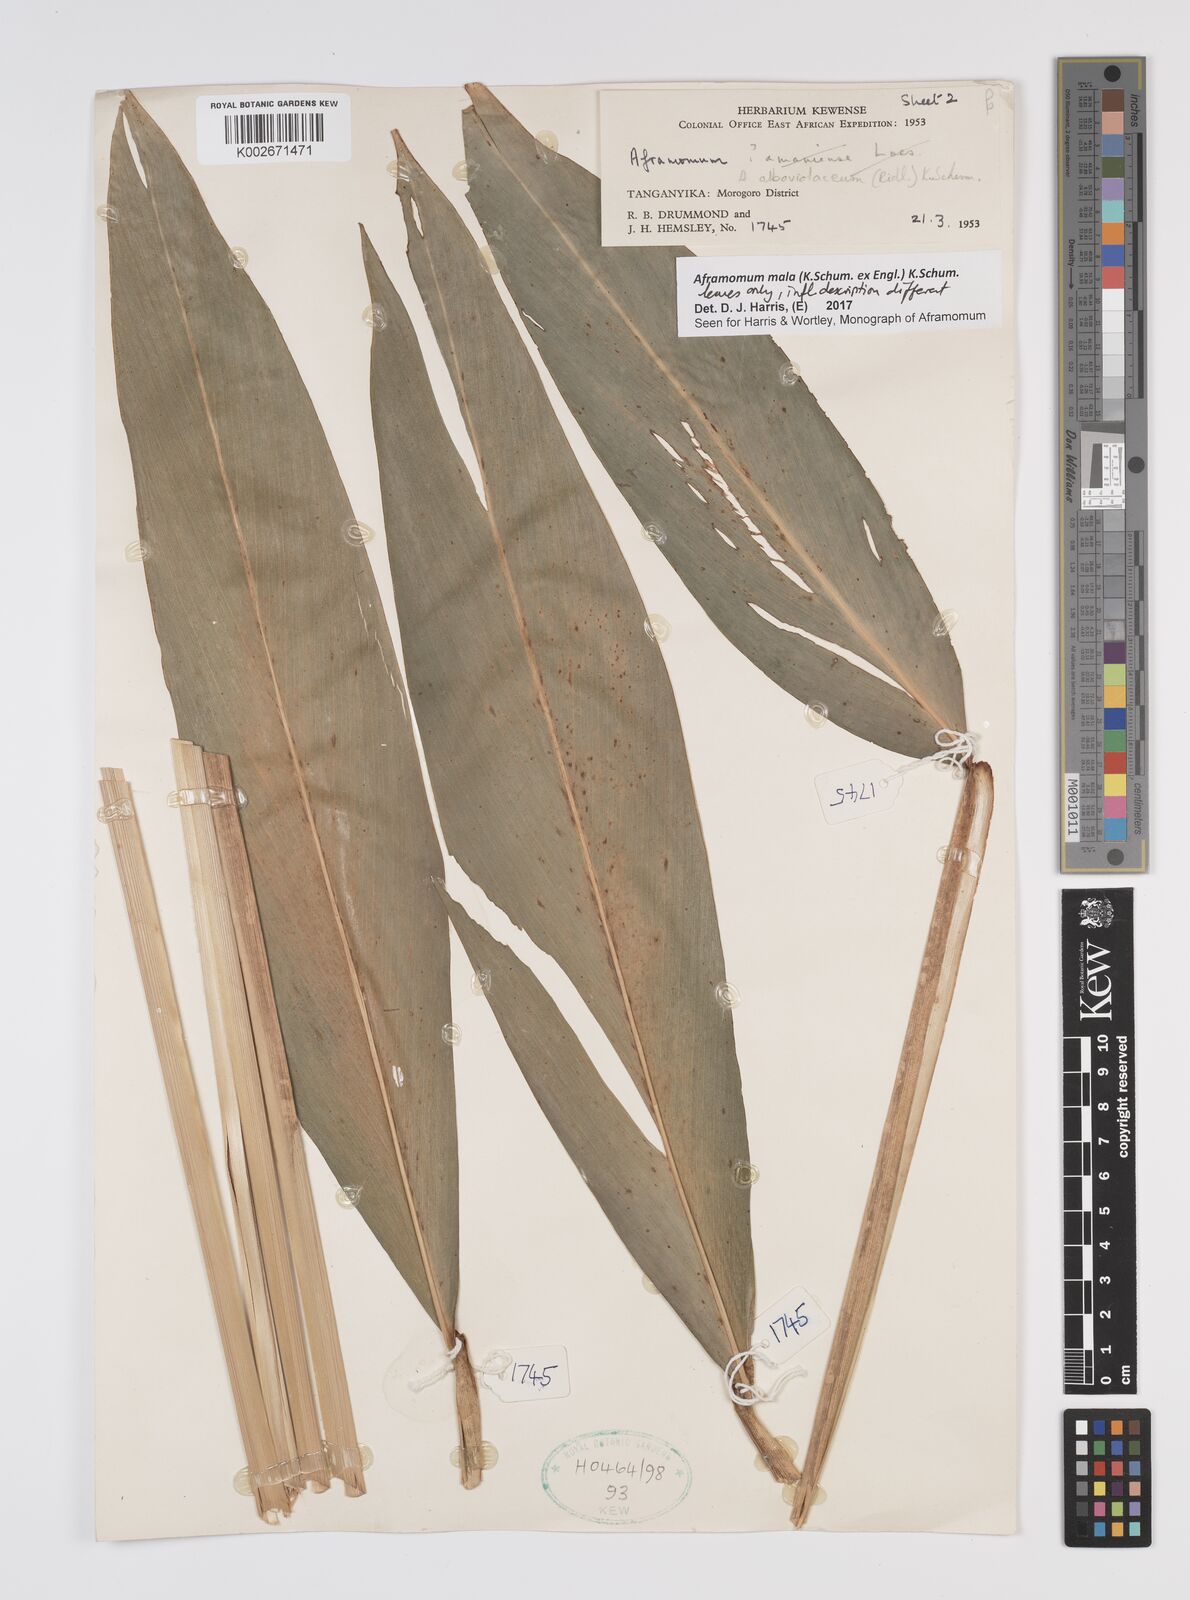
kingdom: Plantae
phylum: Tracheophyta
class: Liliopsida
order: Zingiberales
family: Zingiberaceae
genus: Aframomum
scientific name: Aframomum mala
